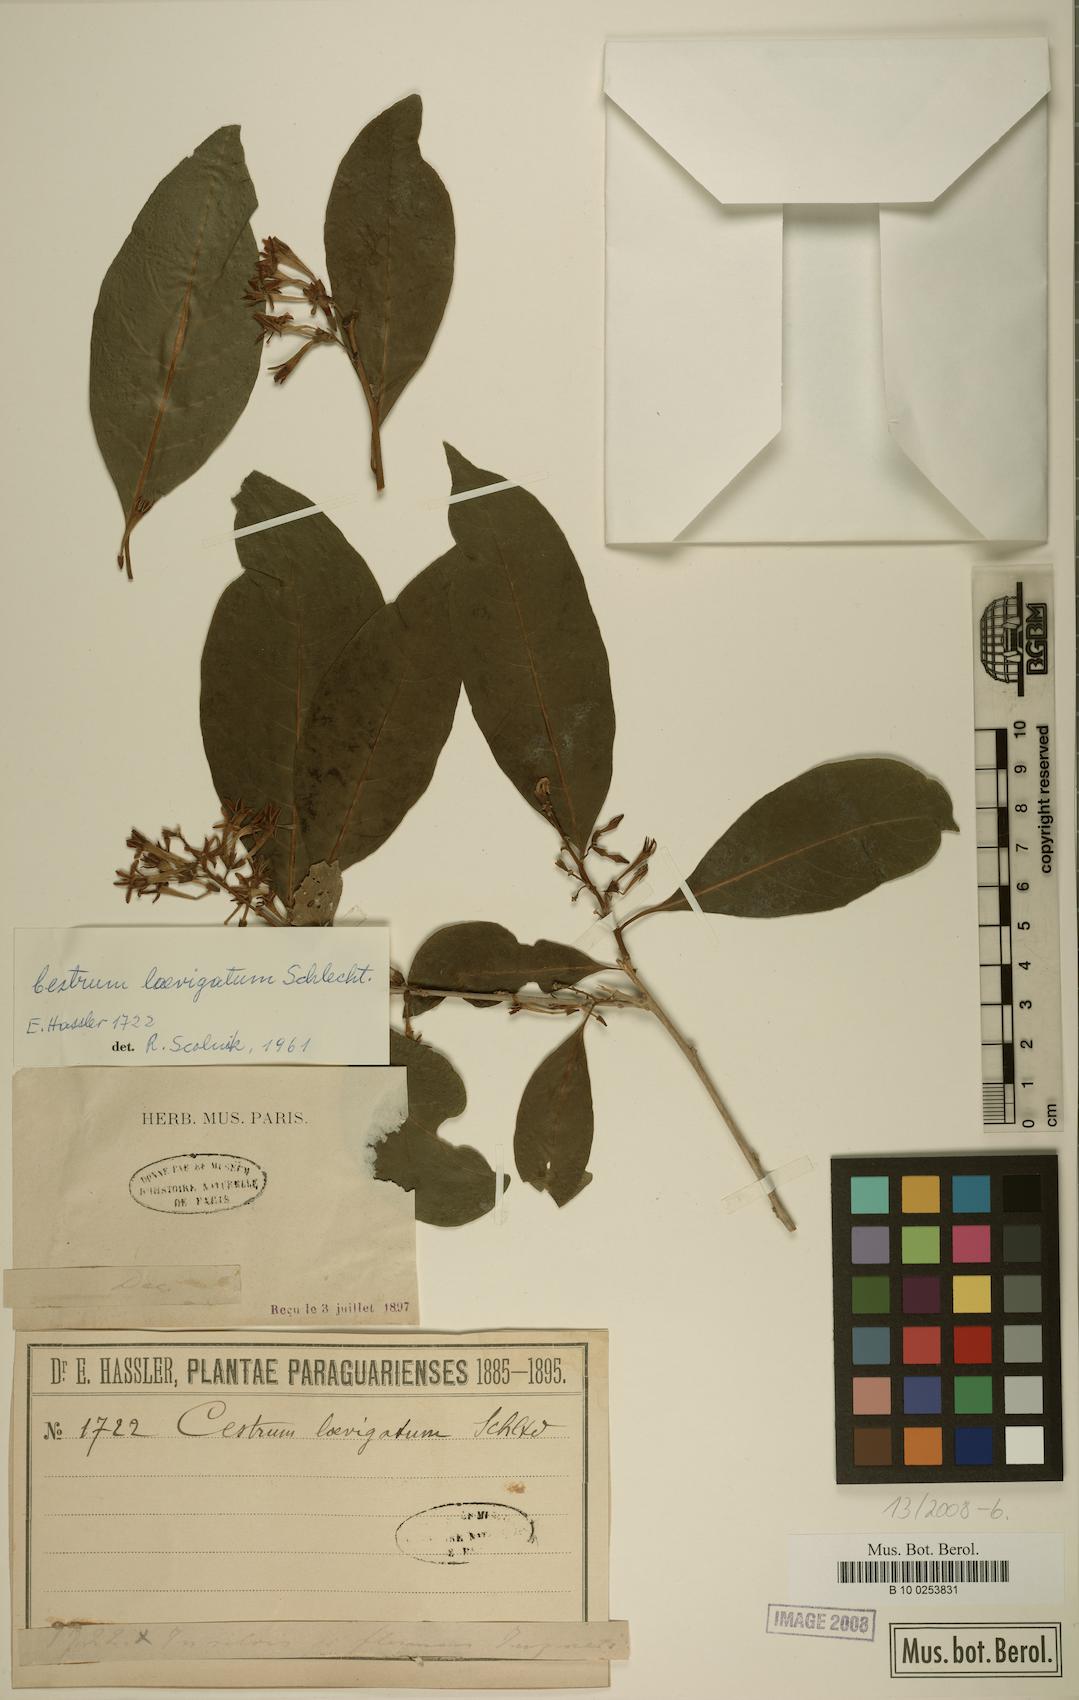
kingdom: Plantae
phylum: Tracheophyta
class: Magnoliopsida
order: Solanales
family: Solanaceae
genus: Cestrum
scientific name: Cestrum laevigatum
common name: Inkberry
